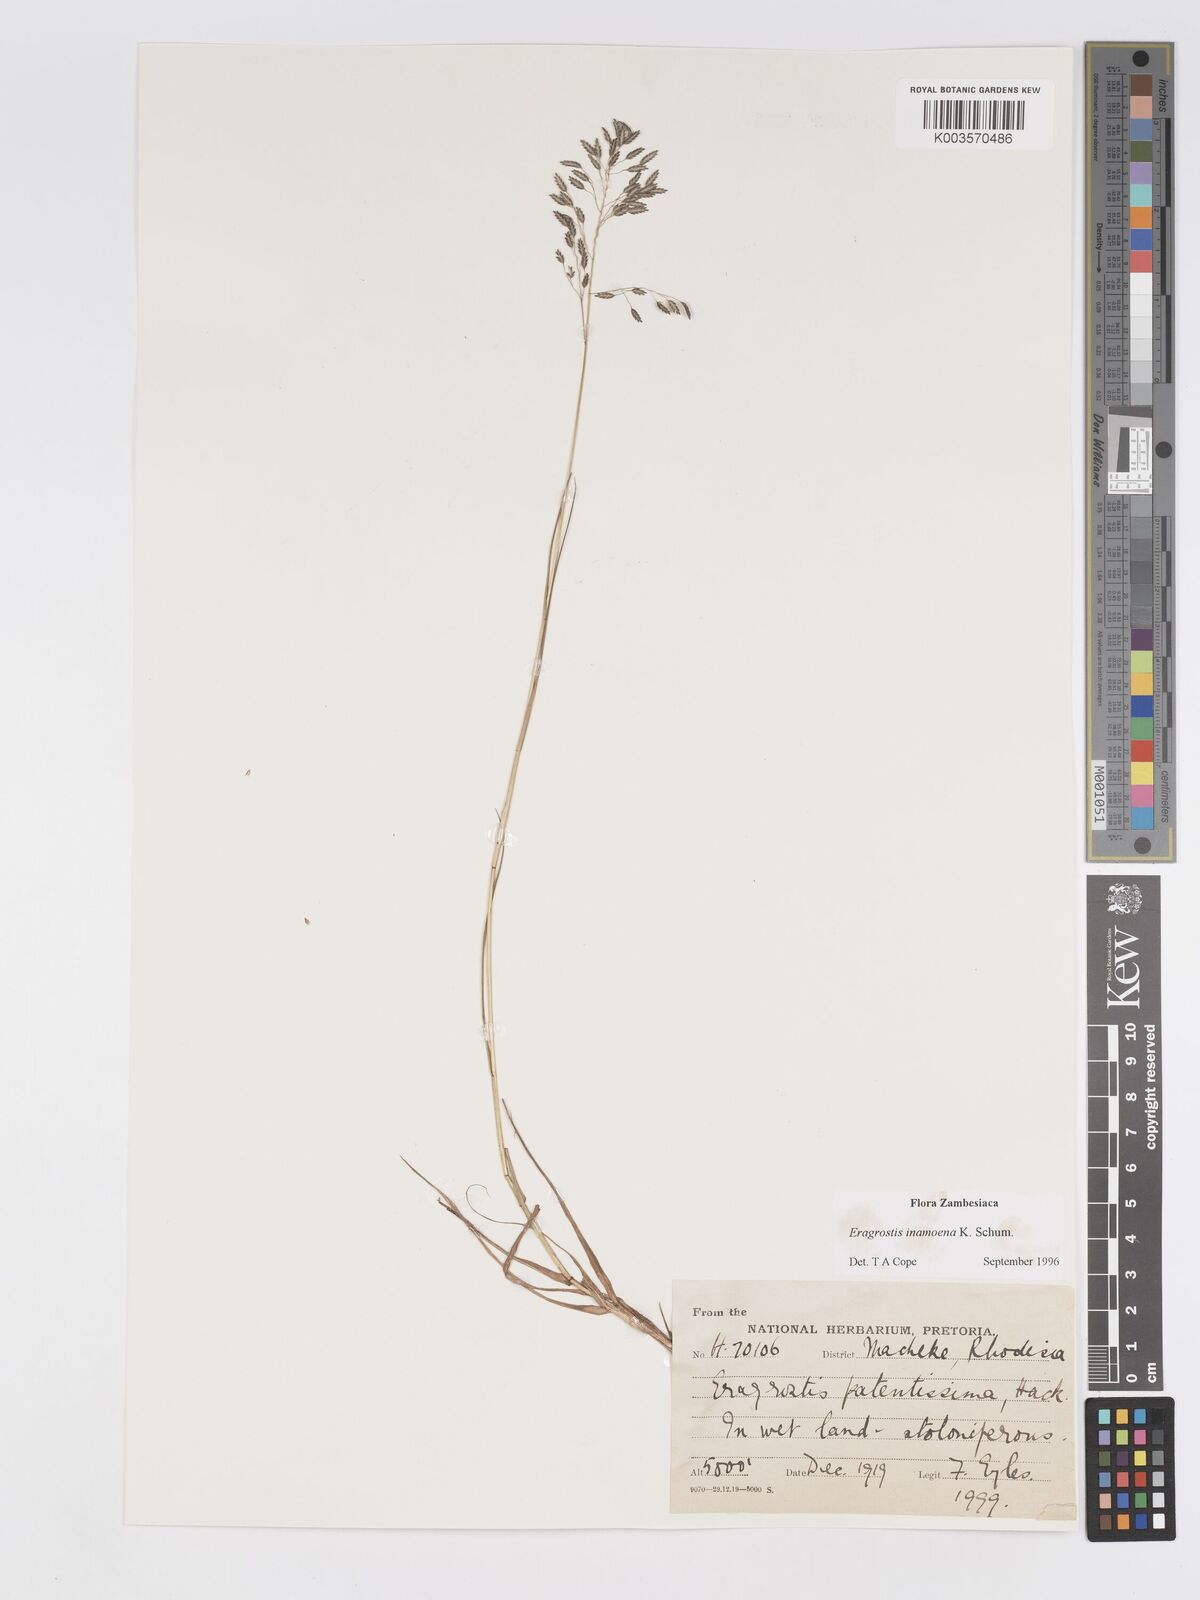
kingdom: Plantae
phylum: Tracheophyta
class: Liliopsida
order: Poales
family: Poaceae
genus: Eragrostis
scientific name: Eragrostis inamoena
